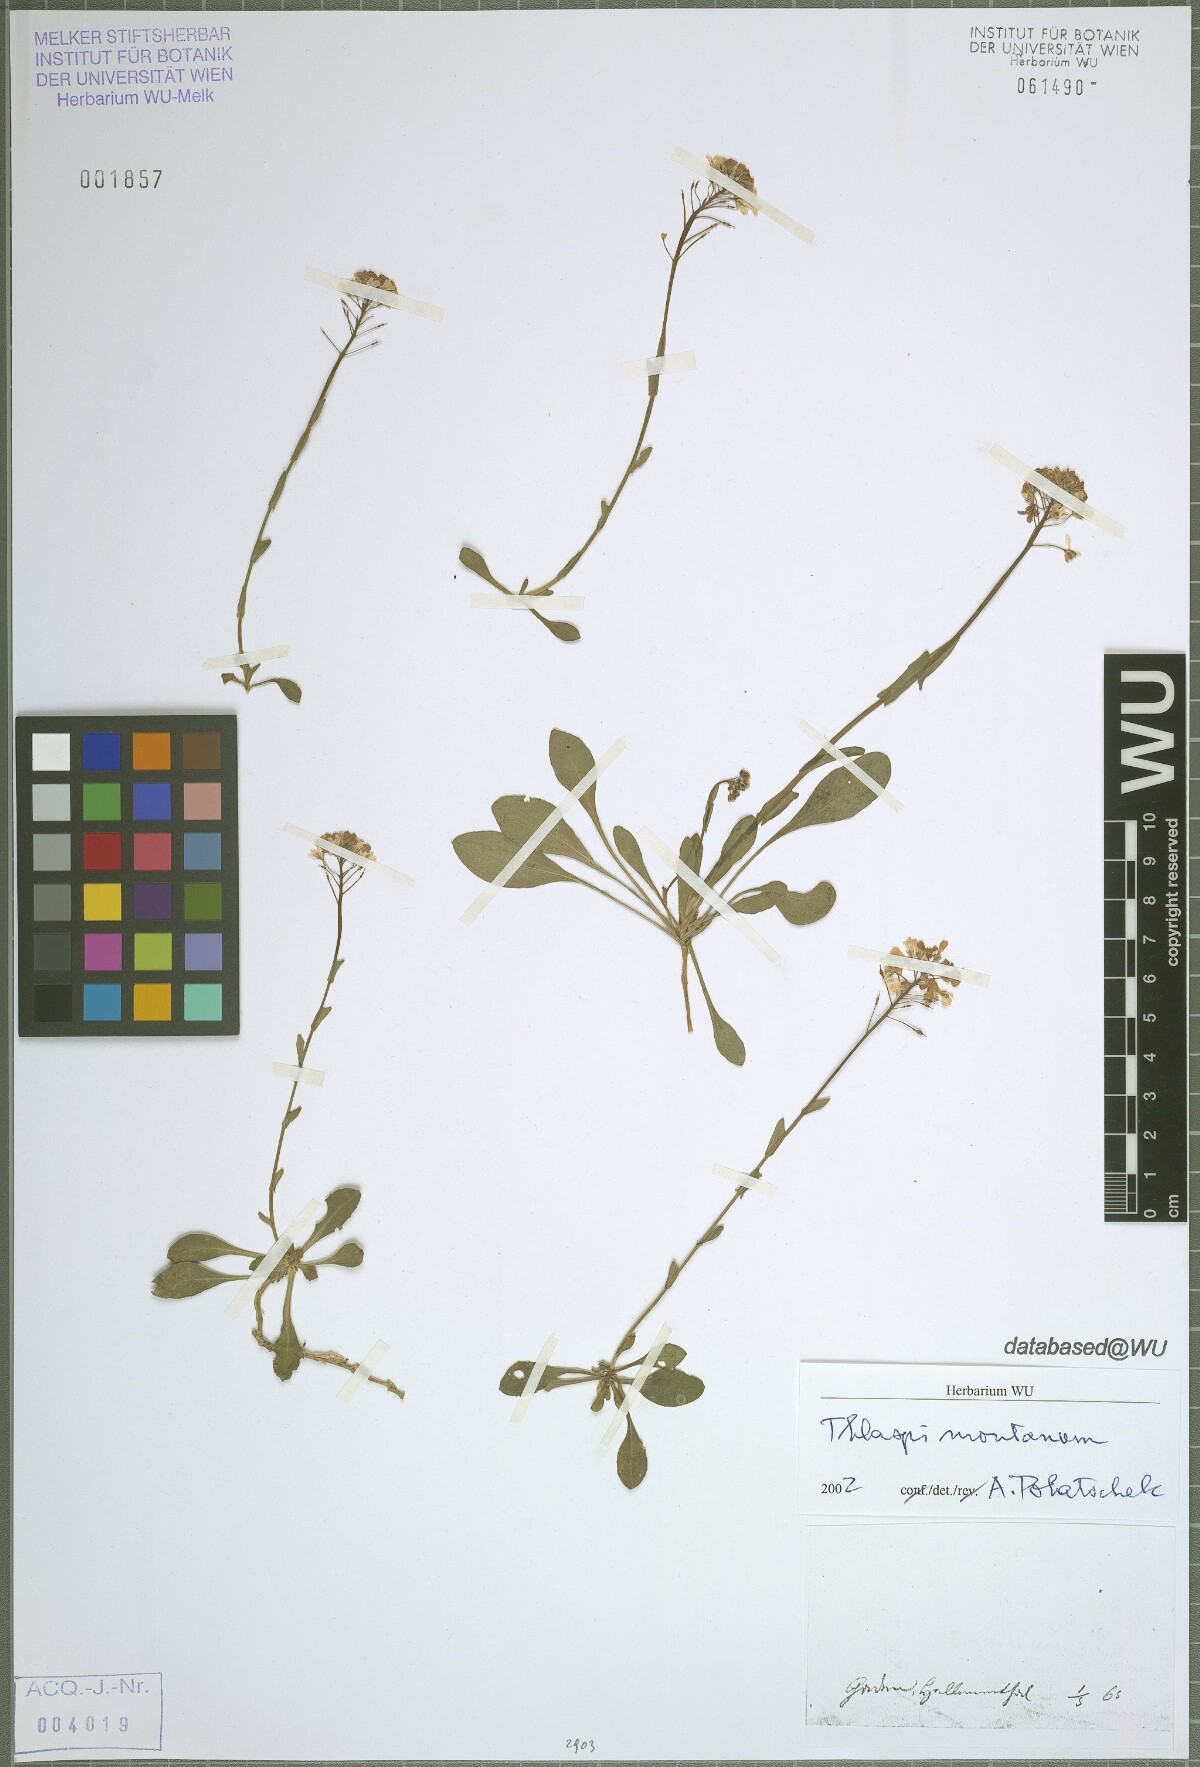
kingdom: Plantae
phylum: Tracheophyta
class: Magnoliopsida
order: Brassicales
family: Brassicaceae
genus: Noccaea
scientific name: Noccaea montana
